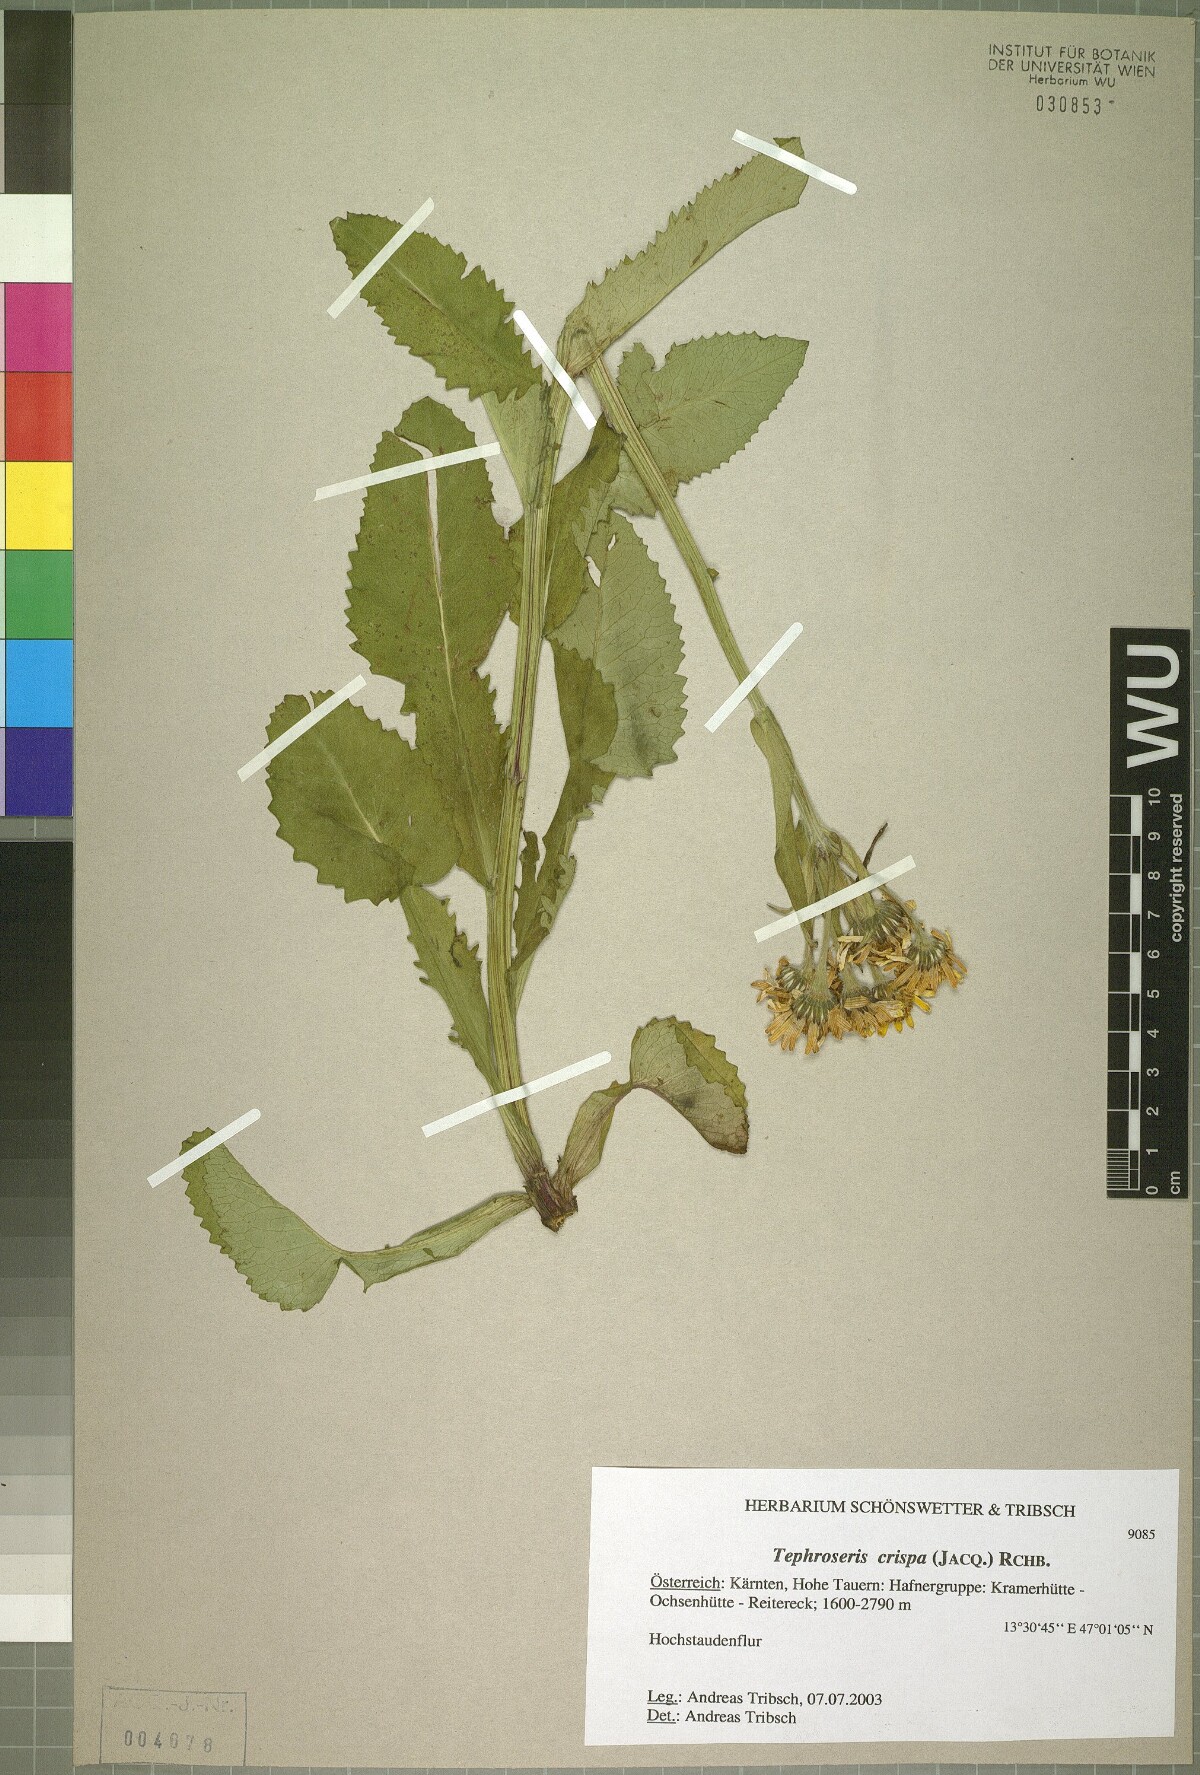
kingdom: Plantae
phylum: Tracheophyta
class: Magnoliopsida
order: Asterales
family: Asteraceae
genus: Tephroseris
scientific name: Tephroseris crispa
